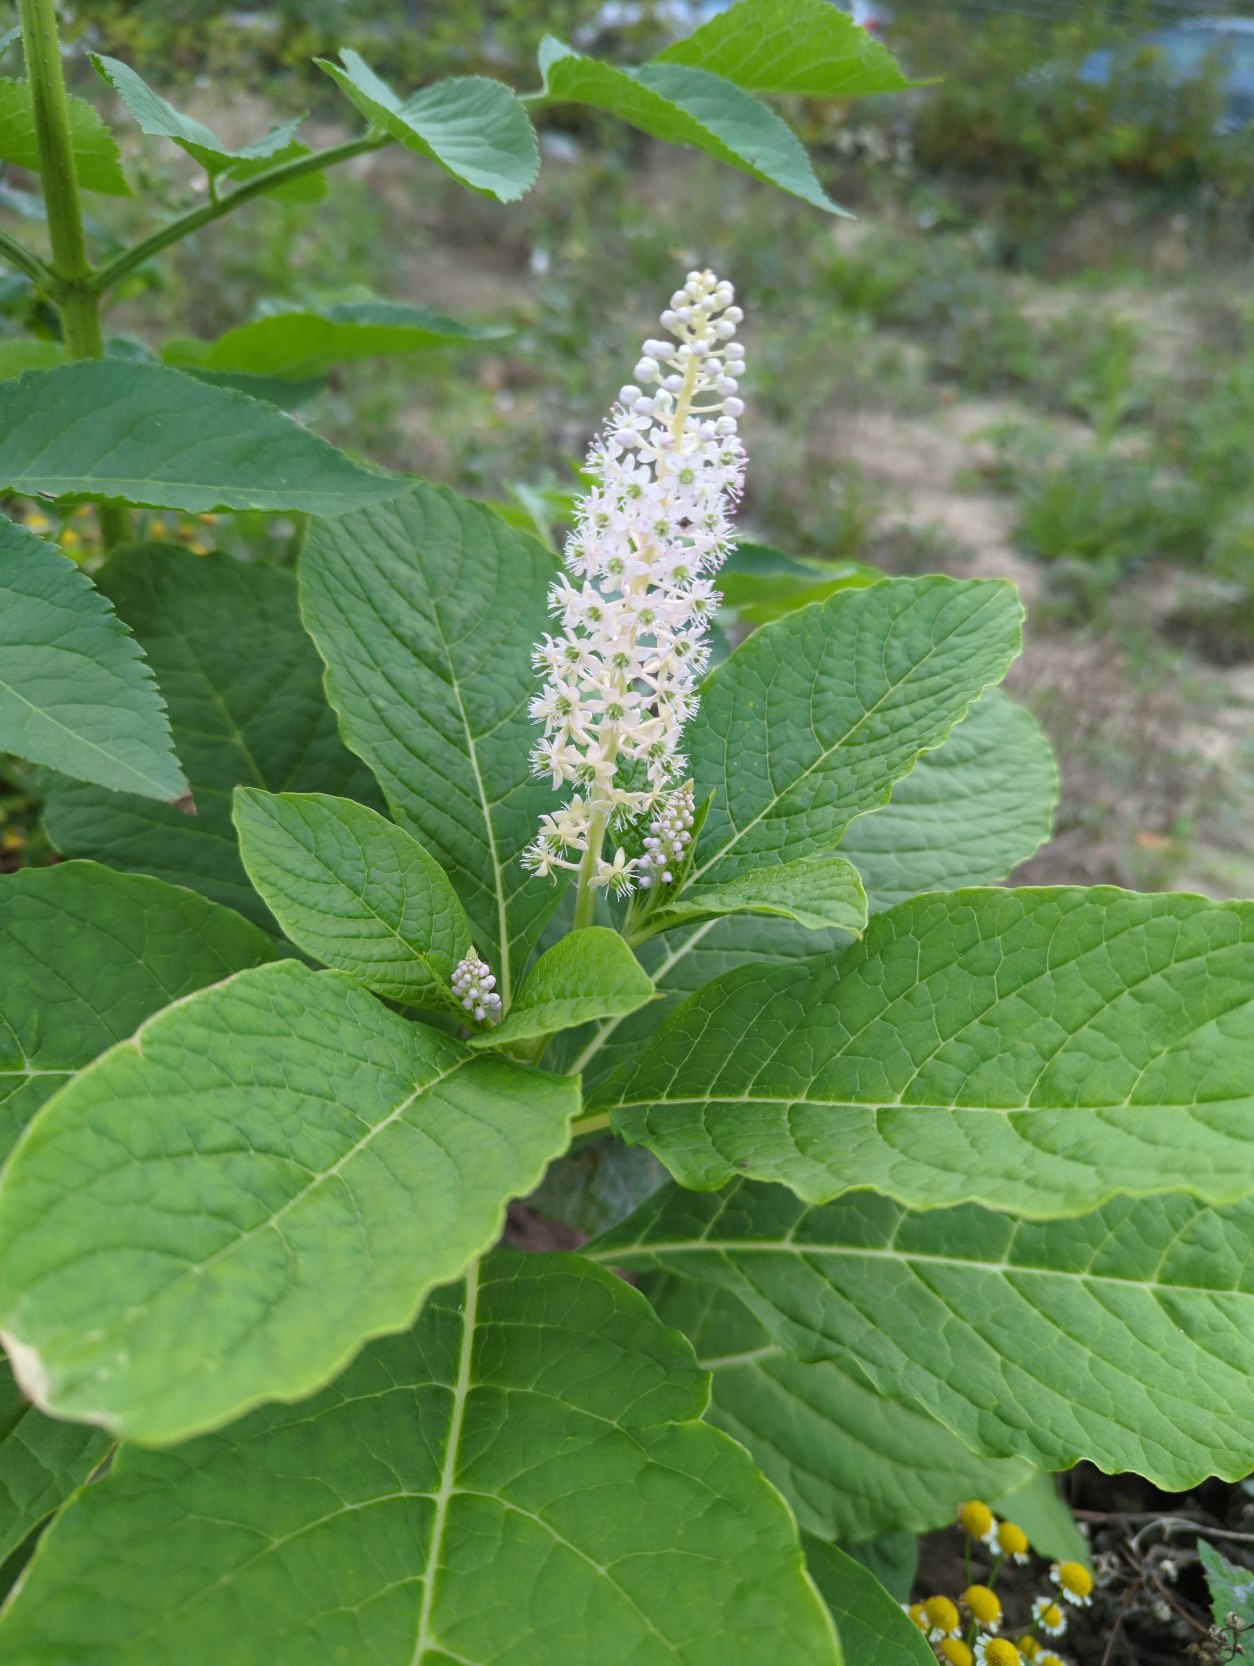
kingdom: Plantae
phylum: Tracheophyta
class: Magnoliopsida
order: Caryophyllales
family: Phytolaccaceae
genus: Phytolacca
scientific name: Phytolacca acinosa
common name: Asiatisk kermesbær
